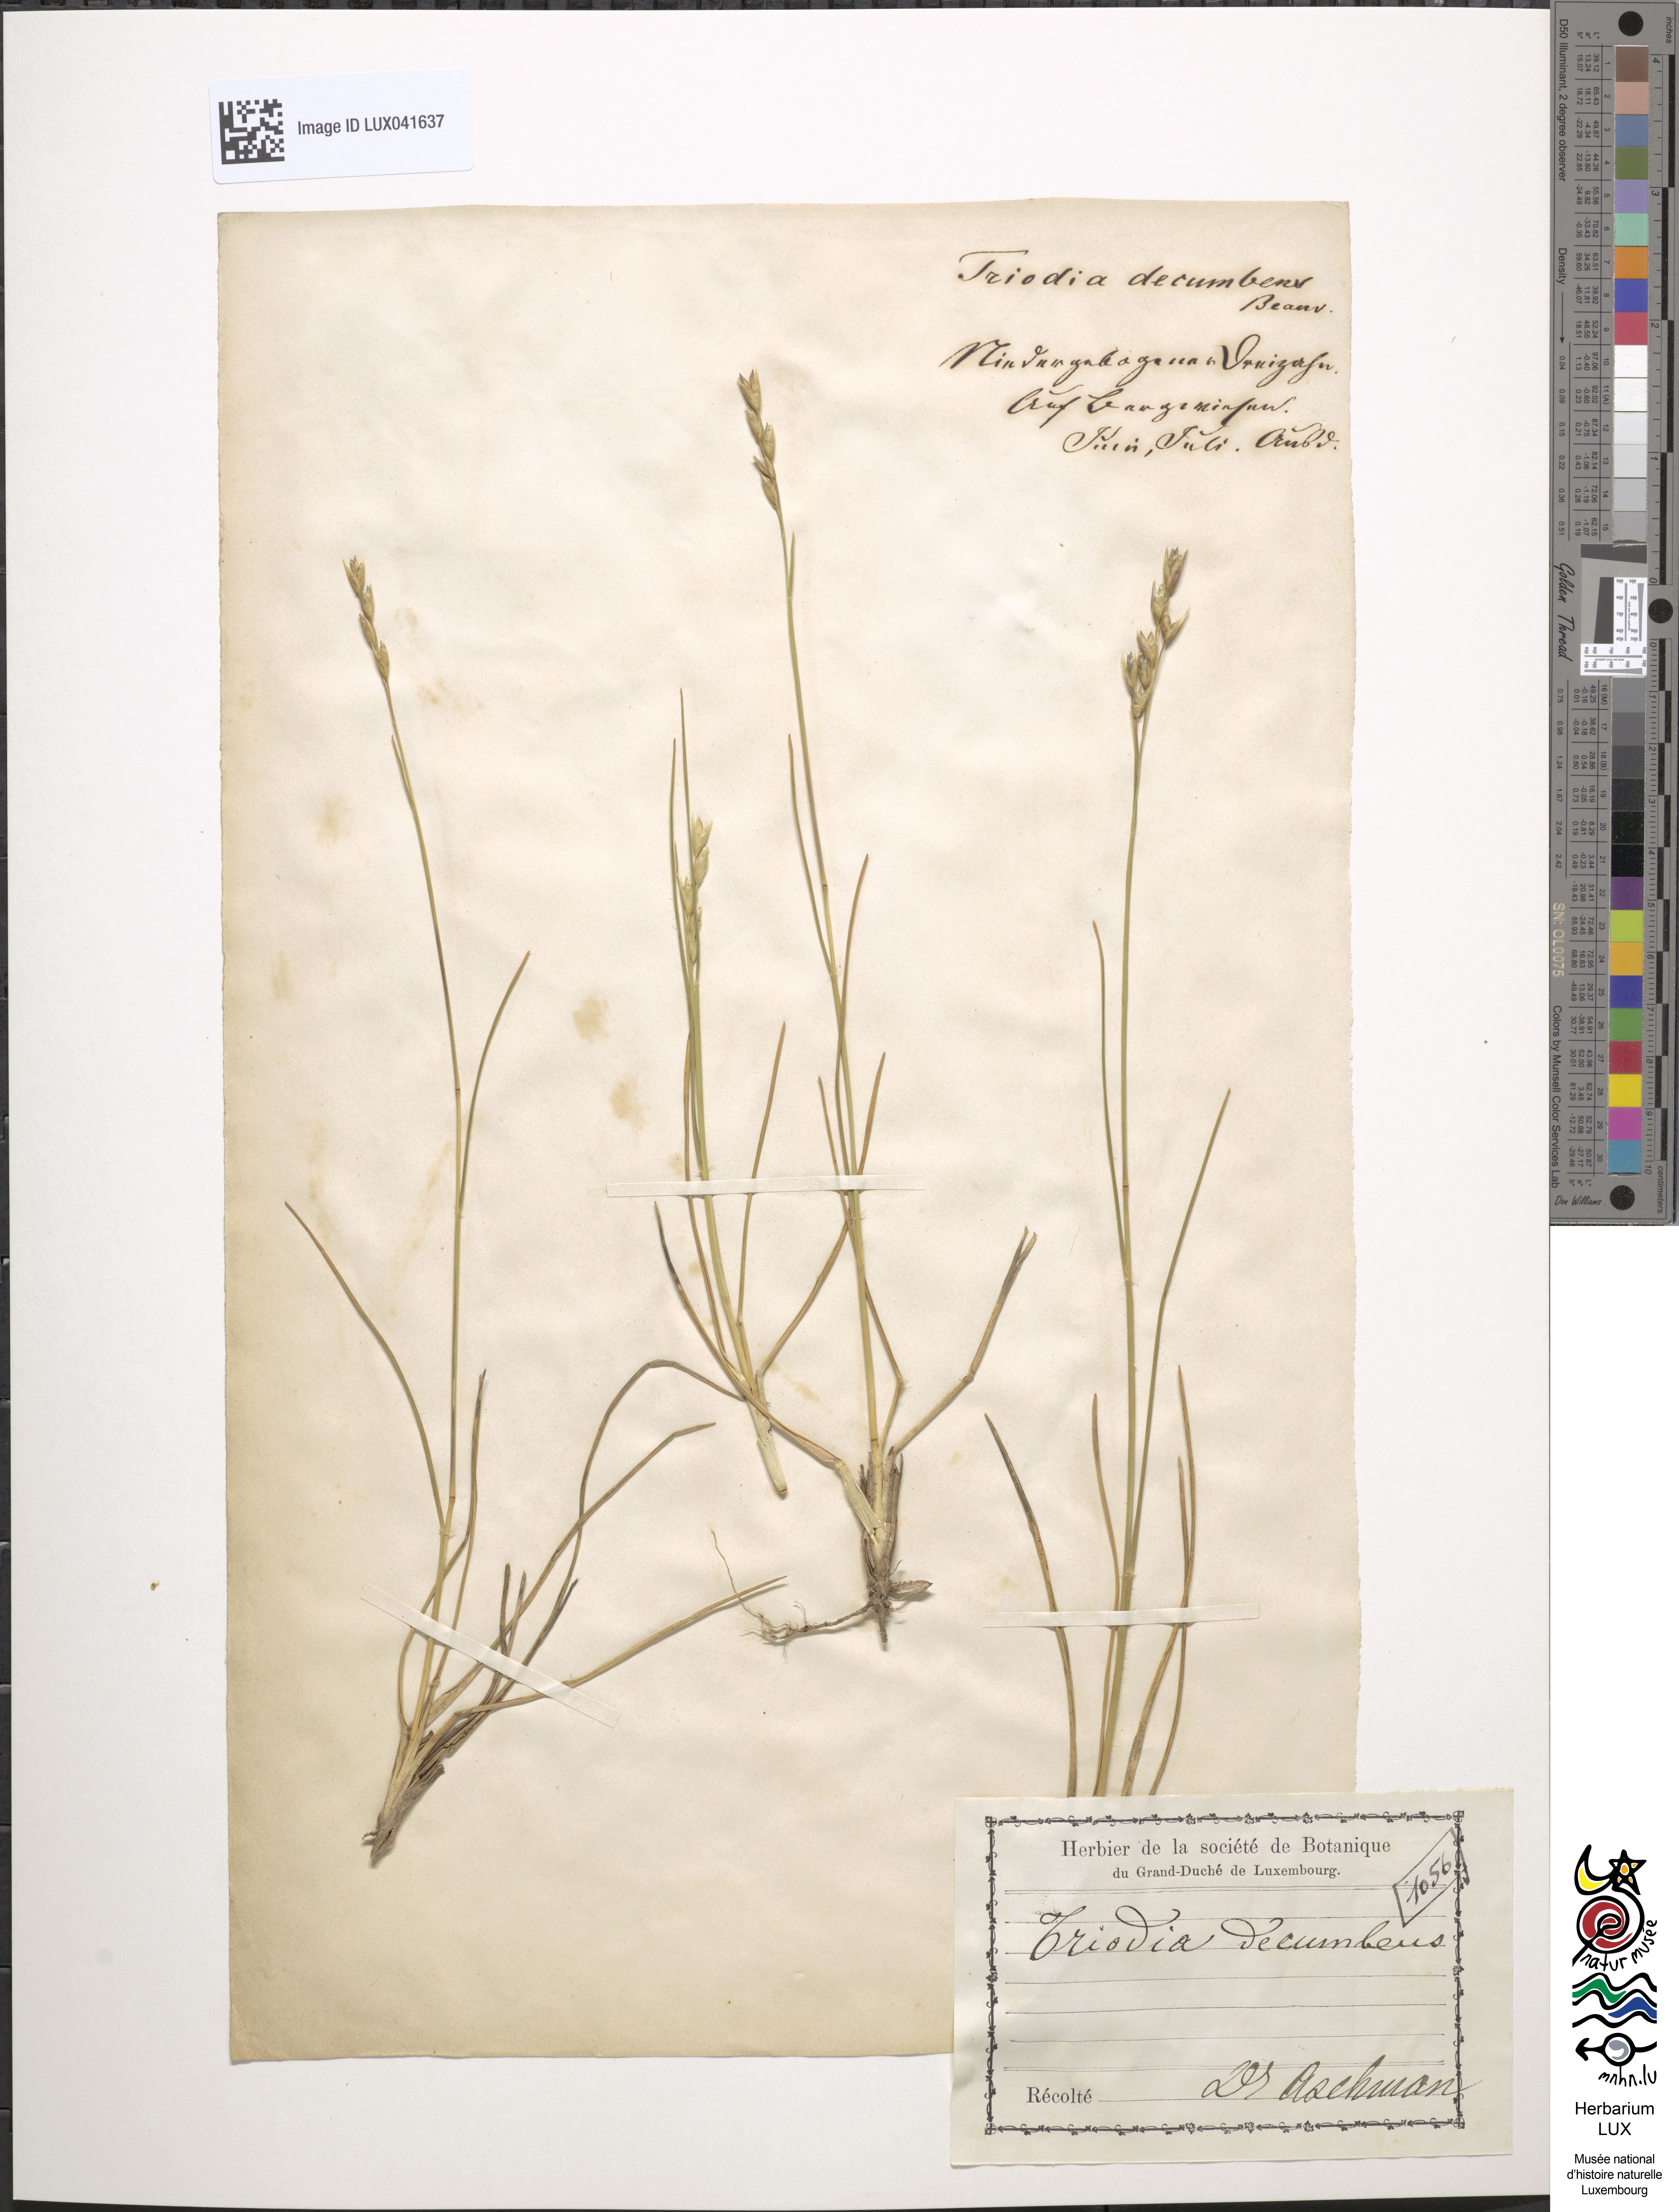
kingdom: Plantae
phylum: Tracheophyta
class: Liliopsida
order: Poales
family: Poaceae
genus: Danthonia
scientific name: Danthonia decumbens
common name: Common heathgrass
